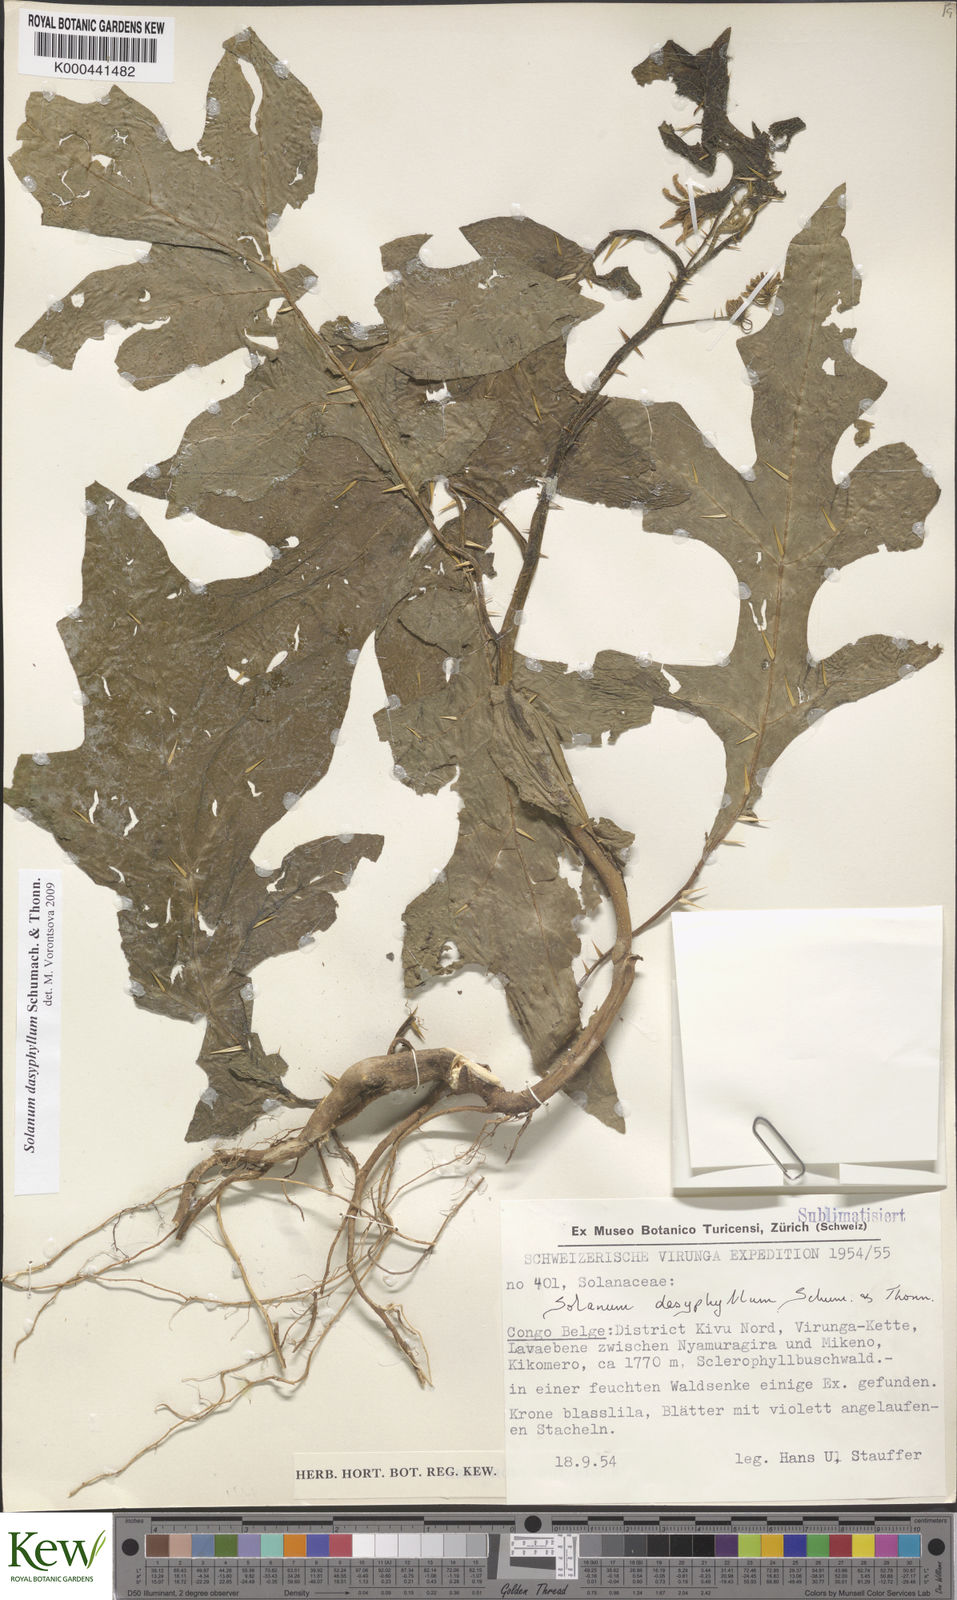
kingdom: Plantae
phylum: Tracheophyta
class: Magnoliopsida
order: Solanales
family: Solanaceae
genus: Solanum
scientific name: Solanum campylacanthum
